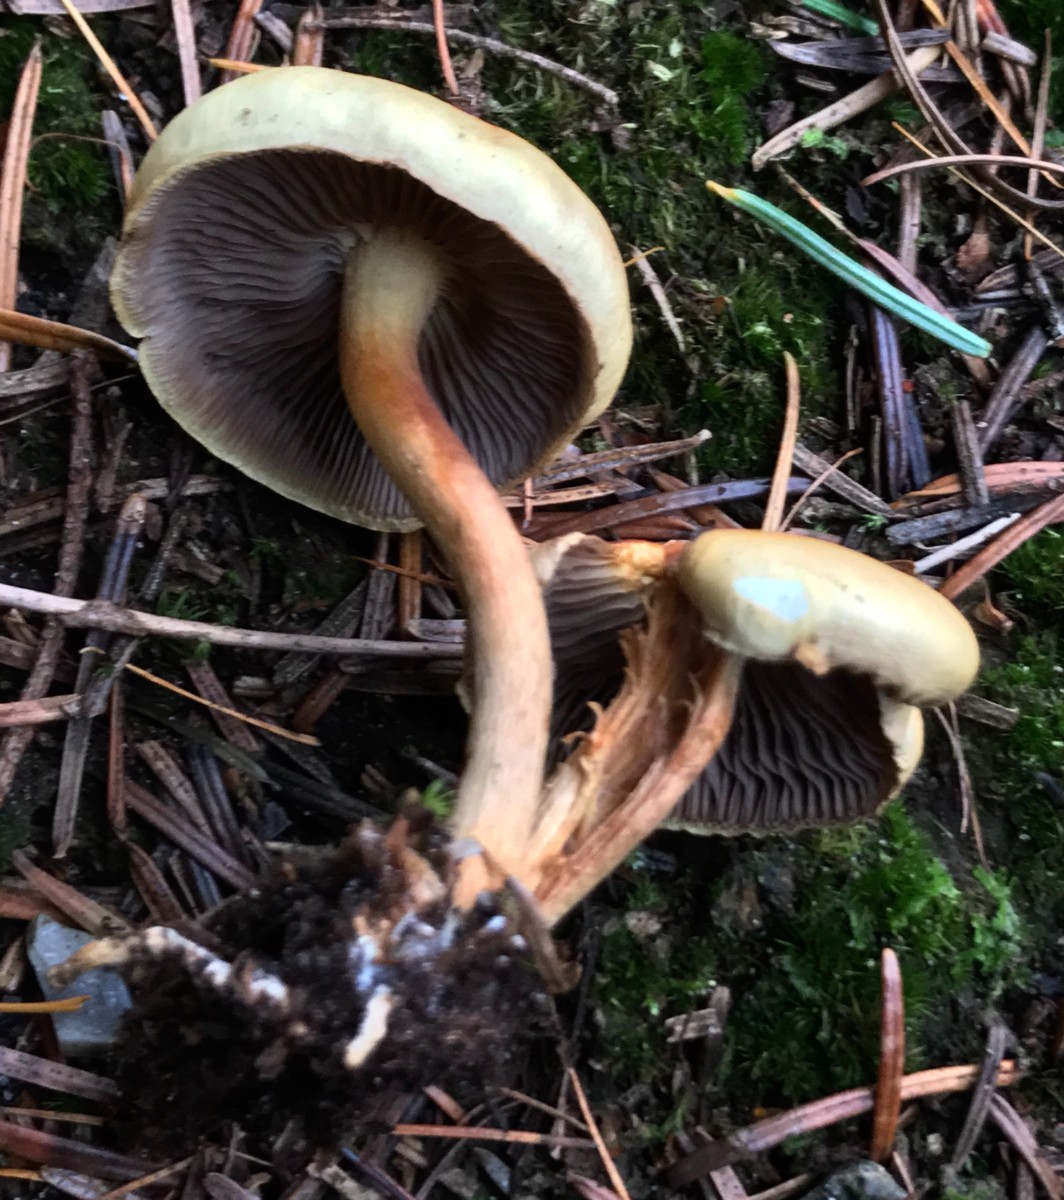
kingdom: Fungi
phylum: Basidiomycota
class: Agaricomycetes
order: Agaricales
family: Strophariaceae
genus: Hypholoma
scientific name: Hypholoma capnoides
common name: gran-svovlhat
